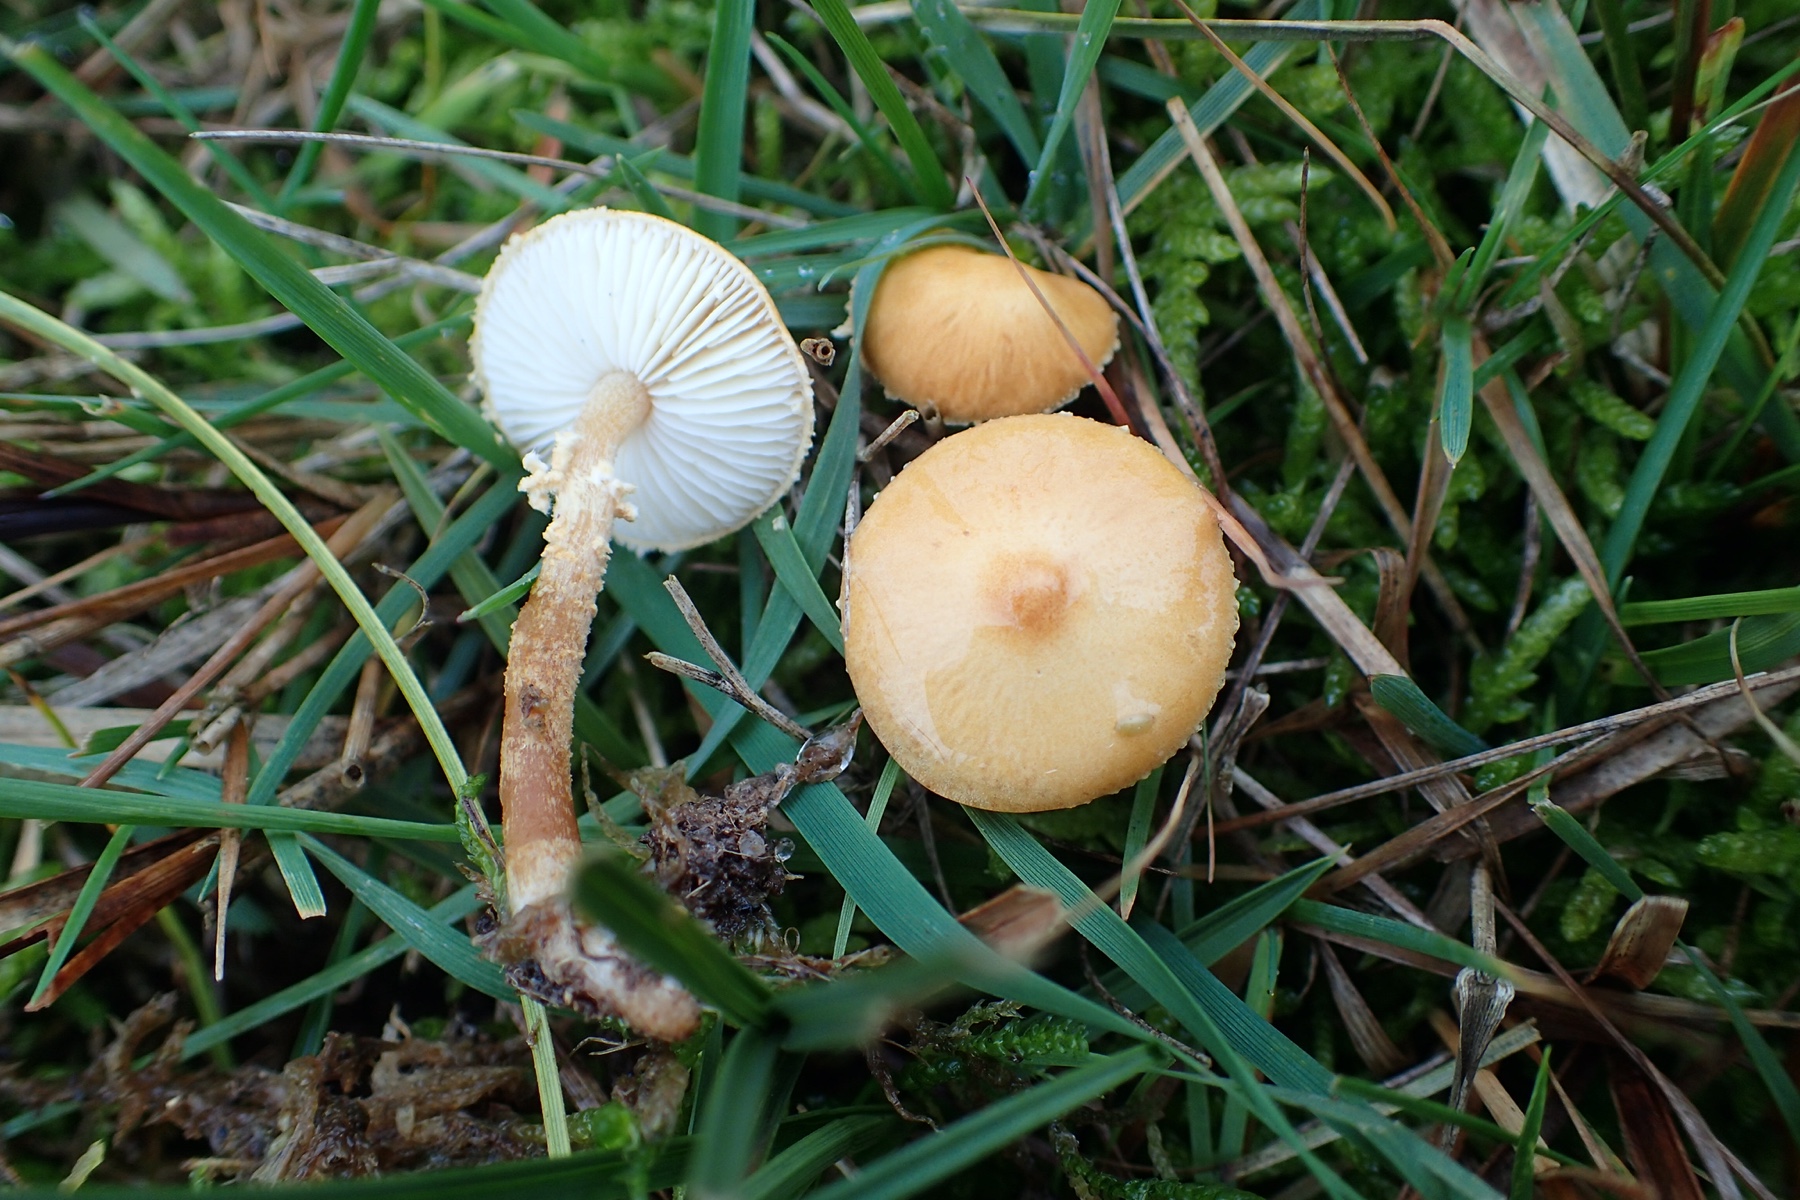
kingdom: Fungi
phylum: Basidiomycota
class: Agaricomycetes
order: Agaricales
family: Tricholomataceae
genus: Cystoderma
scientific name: Cystoderma amianthinum
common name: okkergul grynhat
